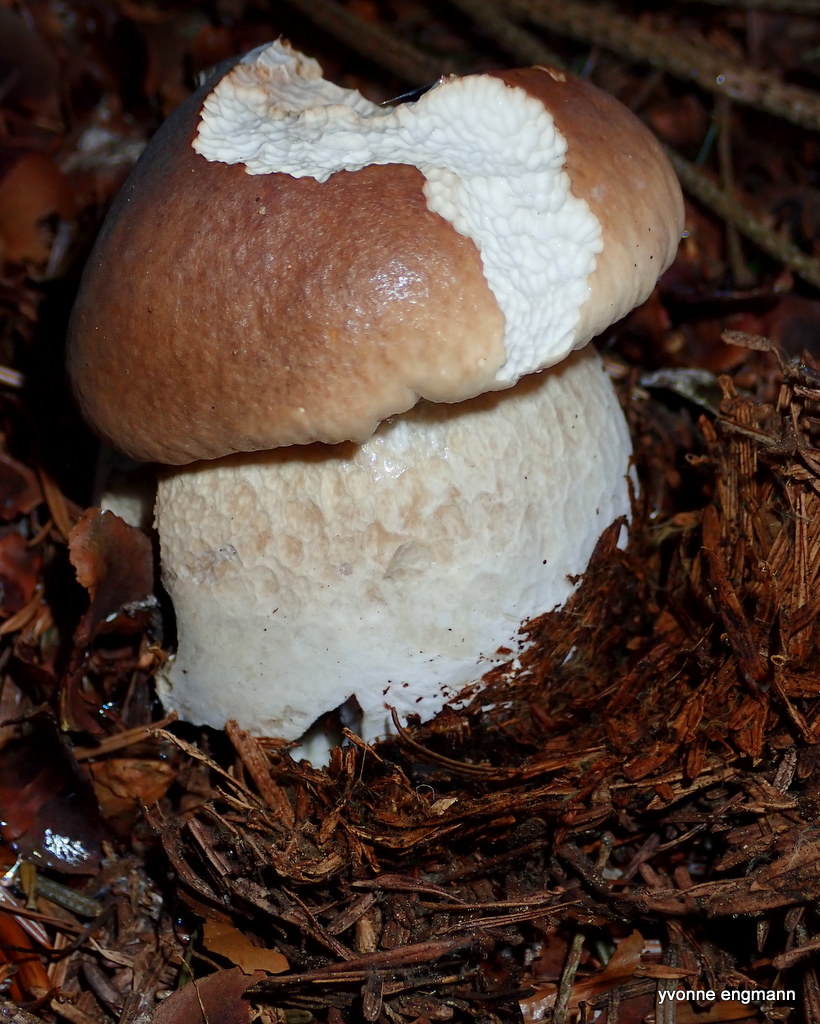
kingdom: Fungi
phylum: Basidiomycota
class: Agaricomycetes
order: Boletales
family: Boletaceae
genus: Boletus
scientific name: Boletus edulis
